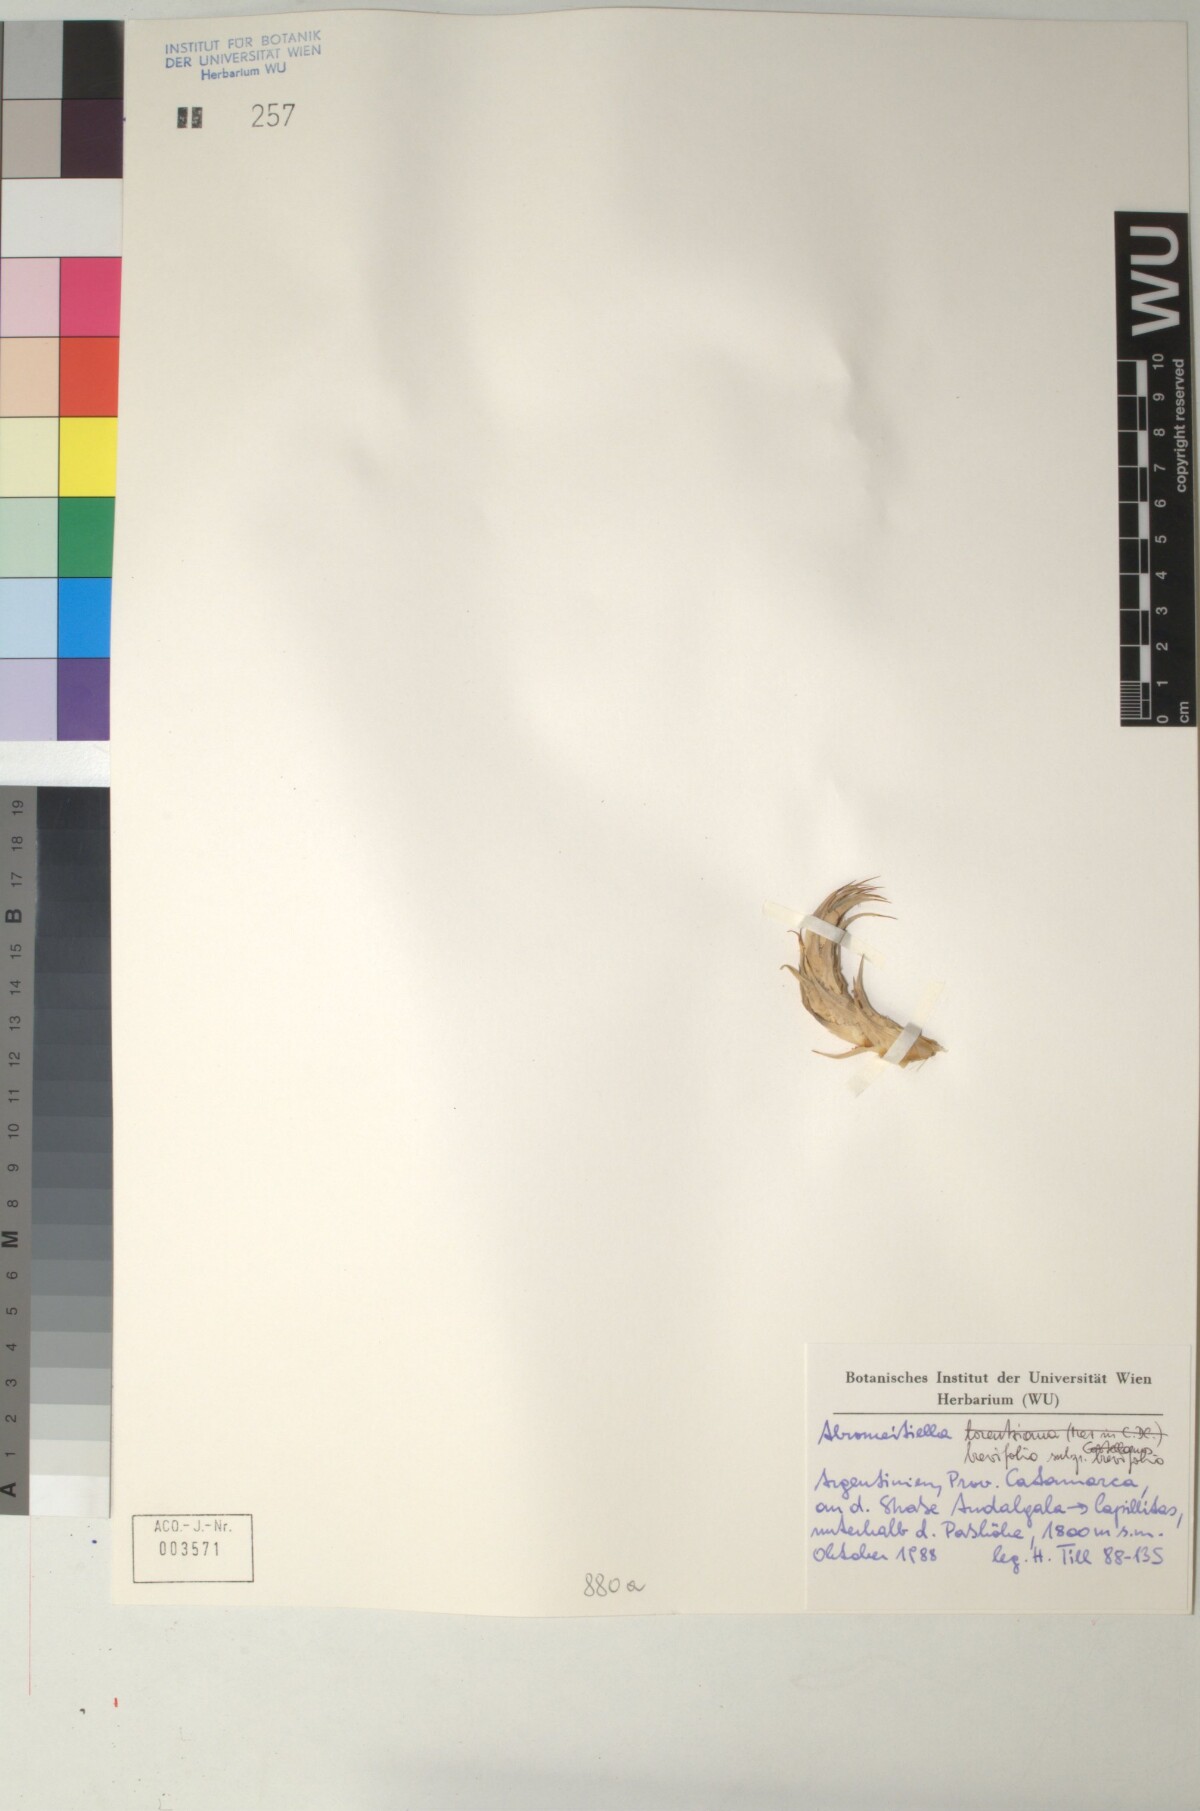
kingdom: Plantae
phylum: Tracheophyta
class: Liliopsida
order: Poales
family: Bromeliaceae
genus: Deuterocohnia
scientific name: Deuterocohnia brevifolia
